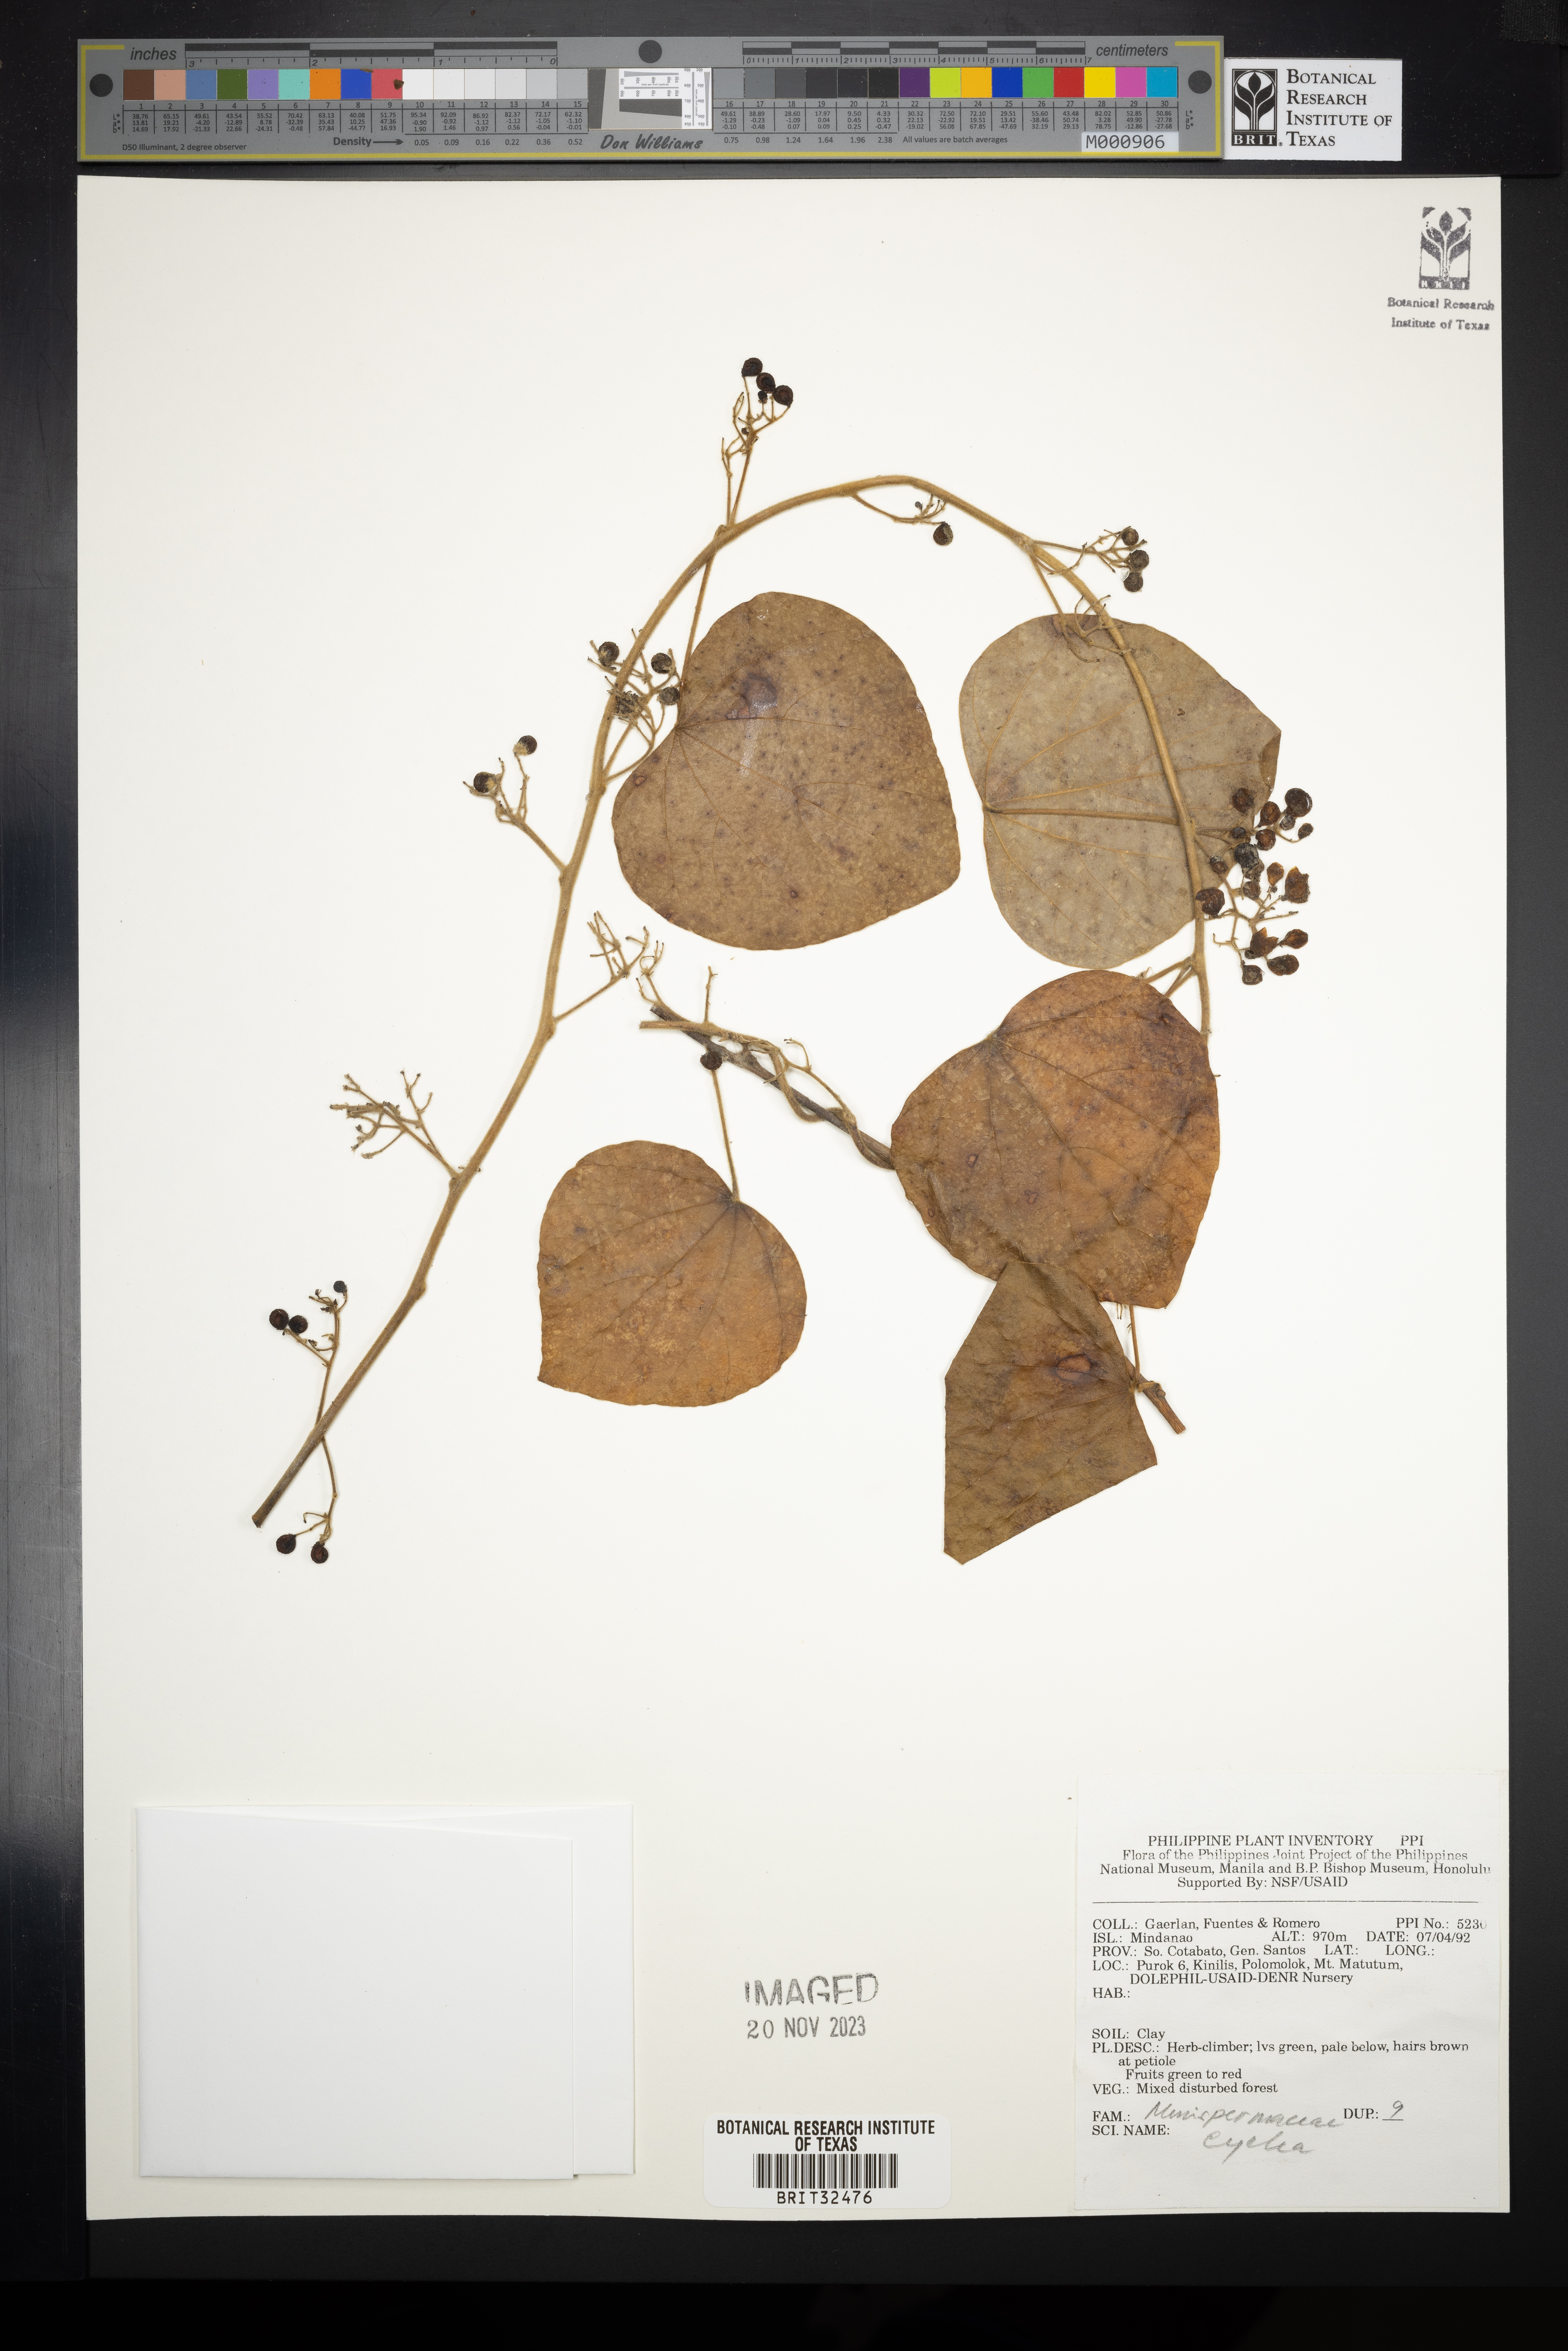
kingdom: Plantae
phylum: Tracheophyta
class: Magnoliopsida
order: Ranunculales
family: Menispermaceae
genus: Cyclea
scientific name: Cyclea
